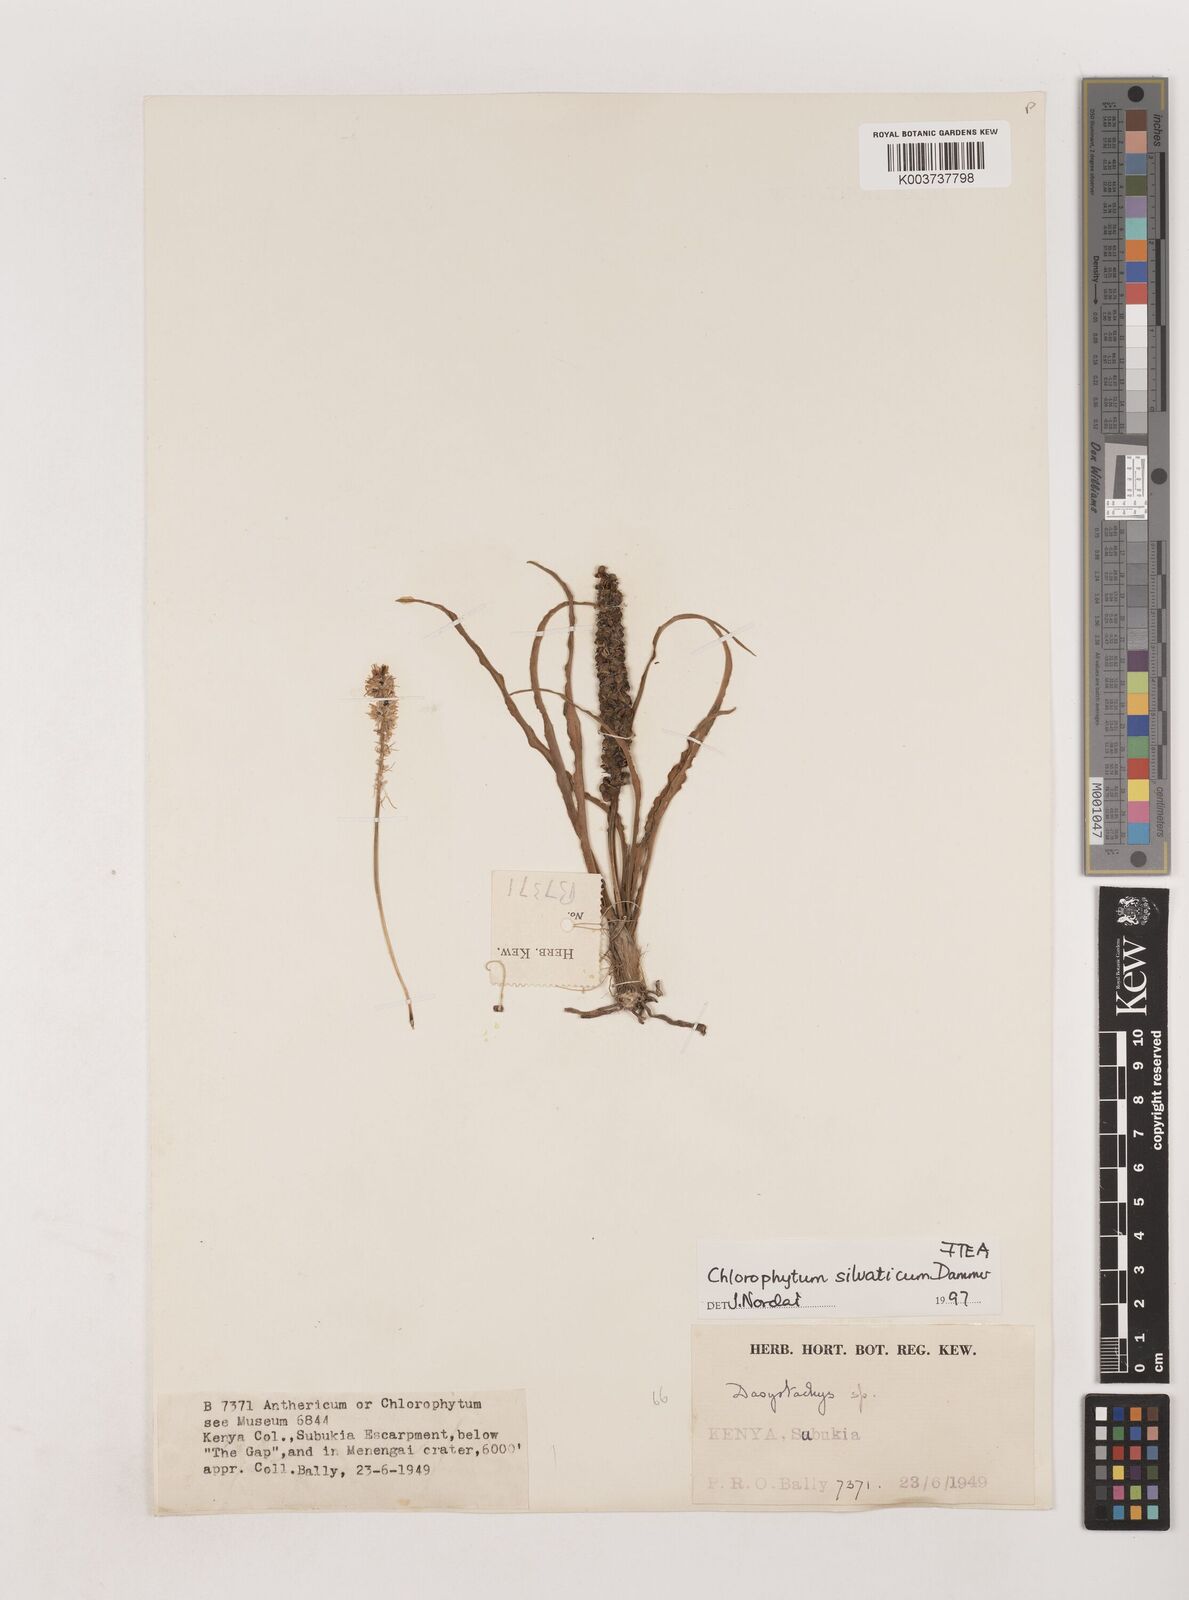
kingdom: Plantae
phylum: Tracheophyta
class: Liliopsida
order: Asparagales
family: Asparagaceae
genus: Chlorophytum
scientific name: Chlorophytum africanum
